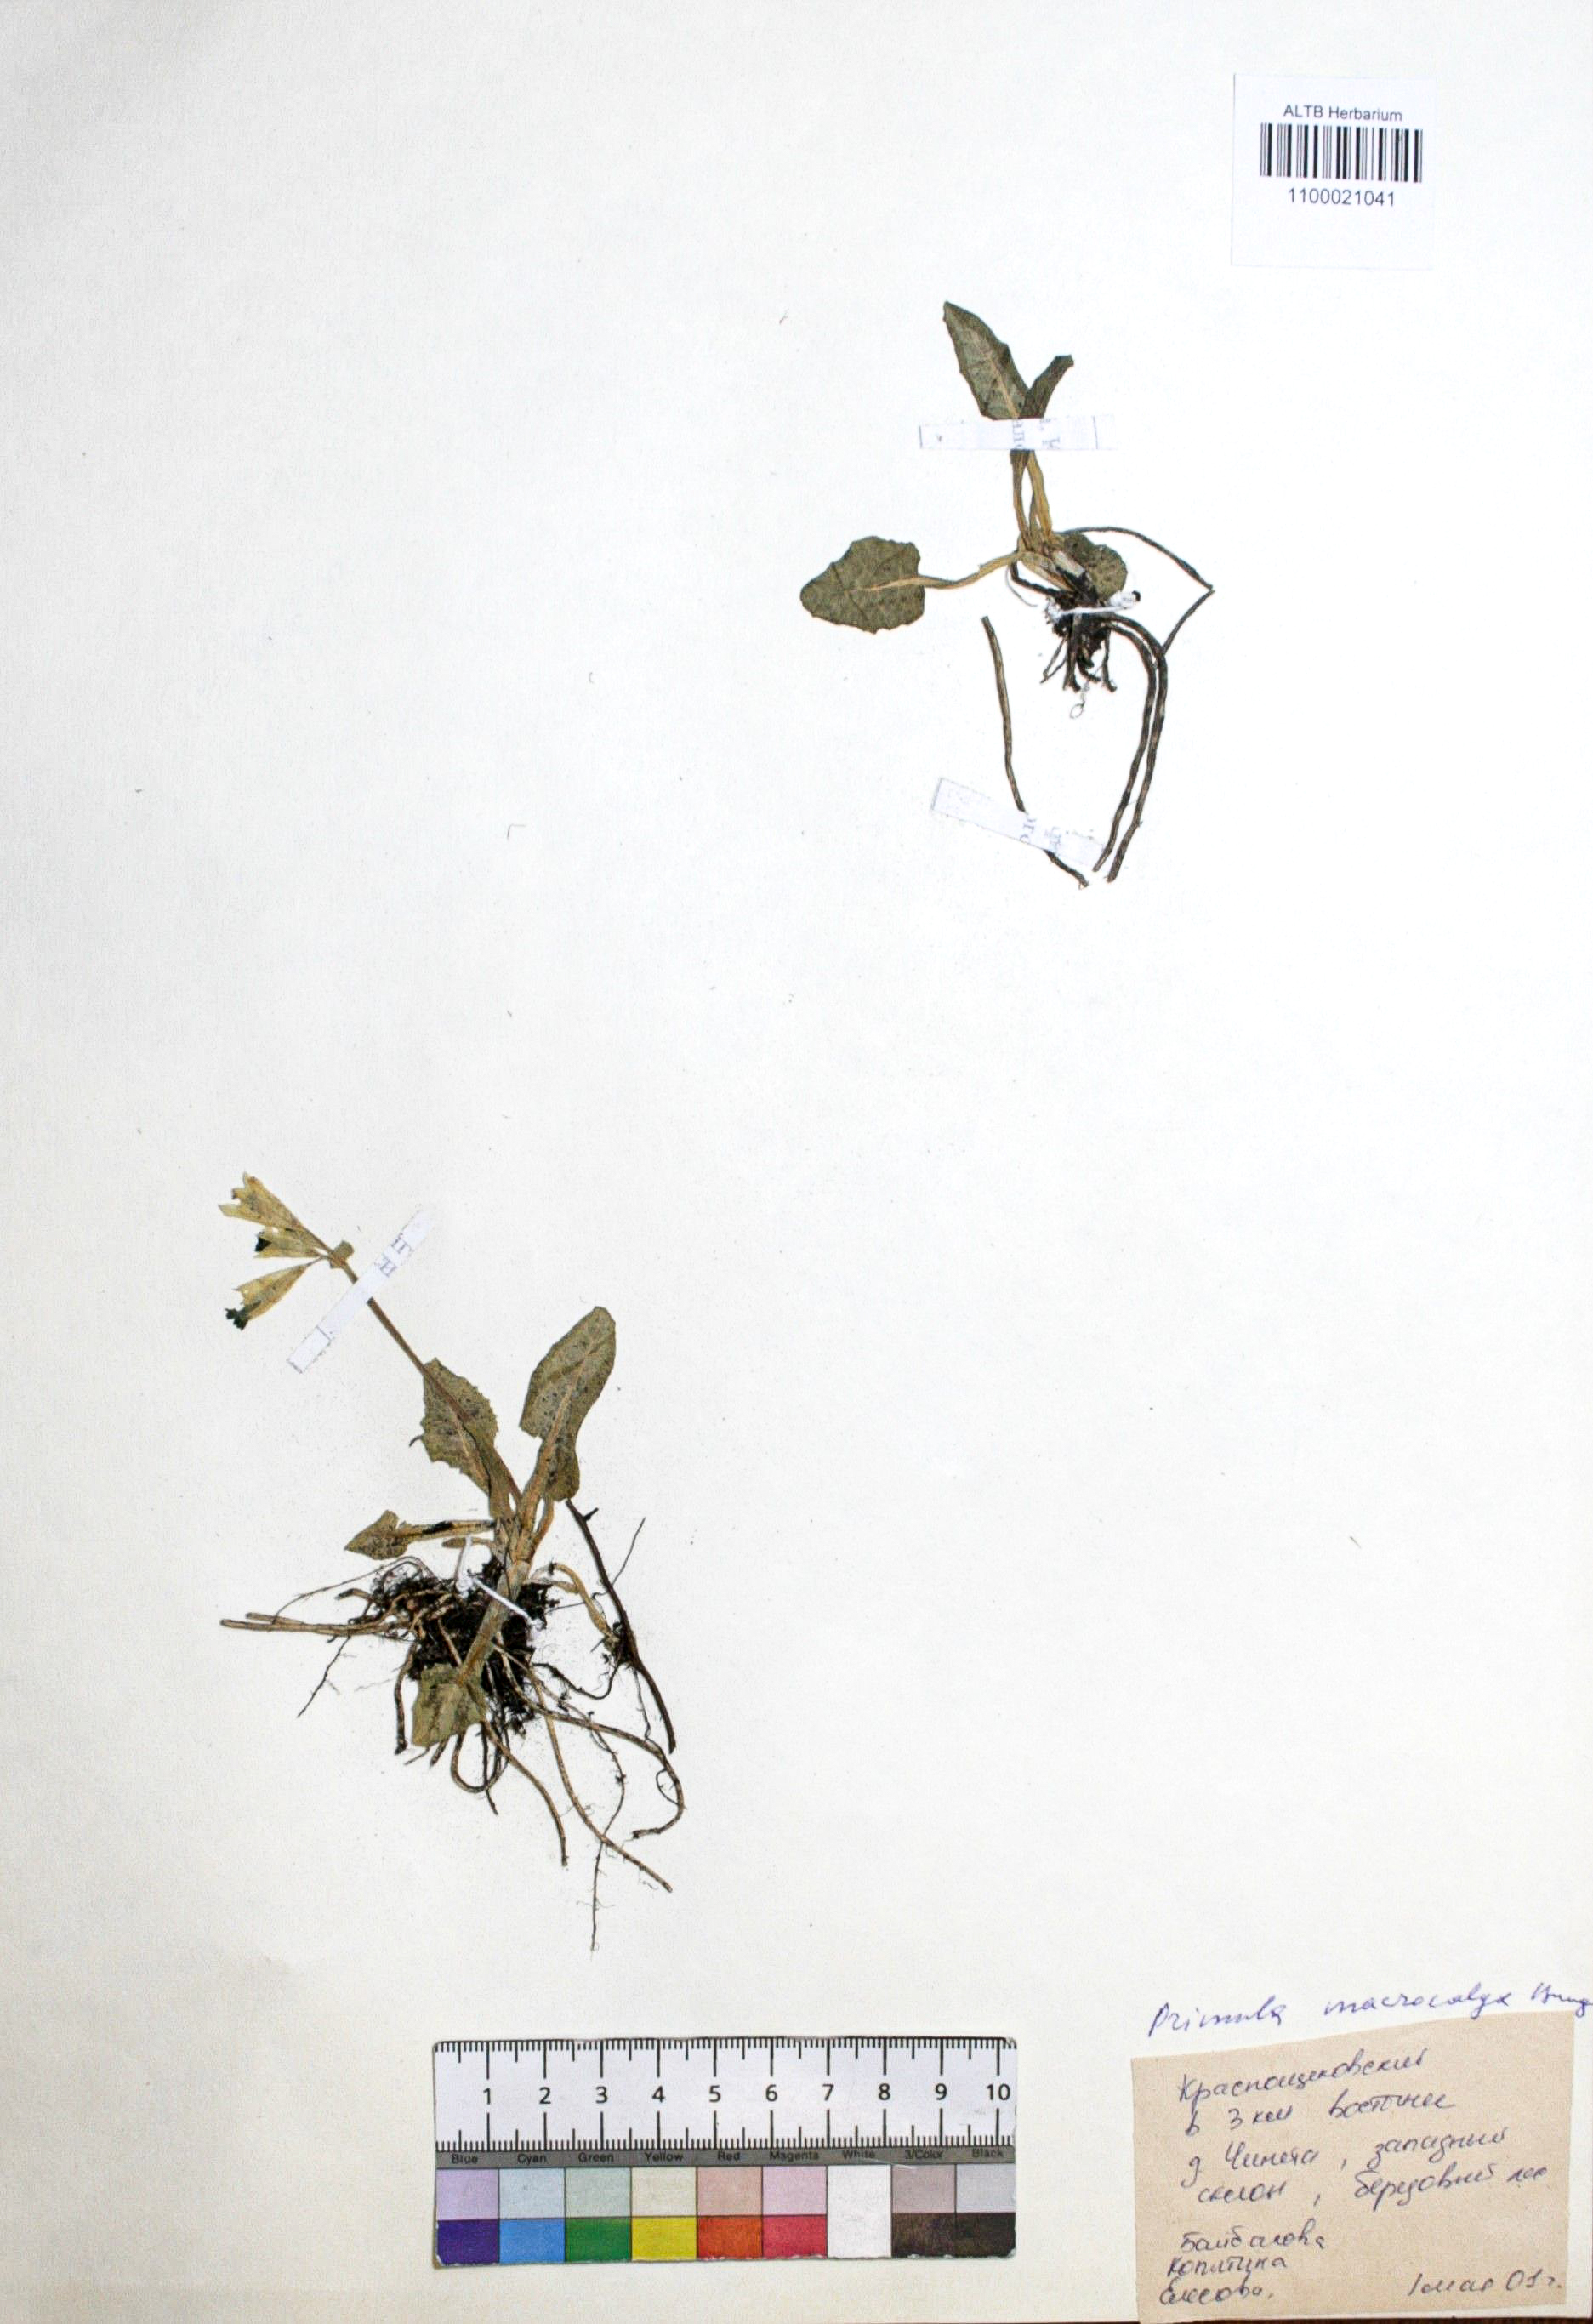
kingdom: Plantae
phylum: Tracheophyta
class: Magnoliopsida
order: Ericales
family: Primulaceae
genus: Primula
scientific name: Primula veris
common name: Cowslip
